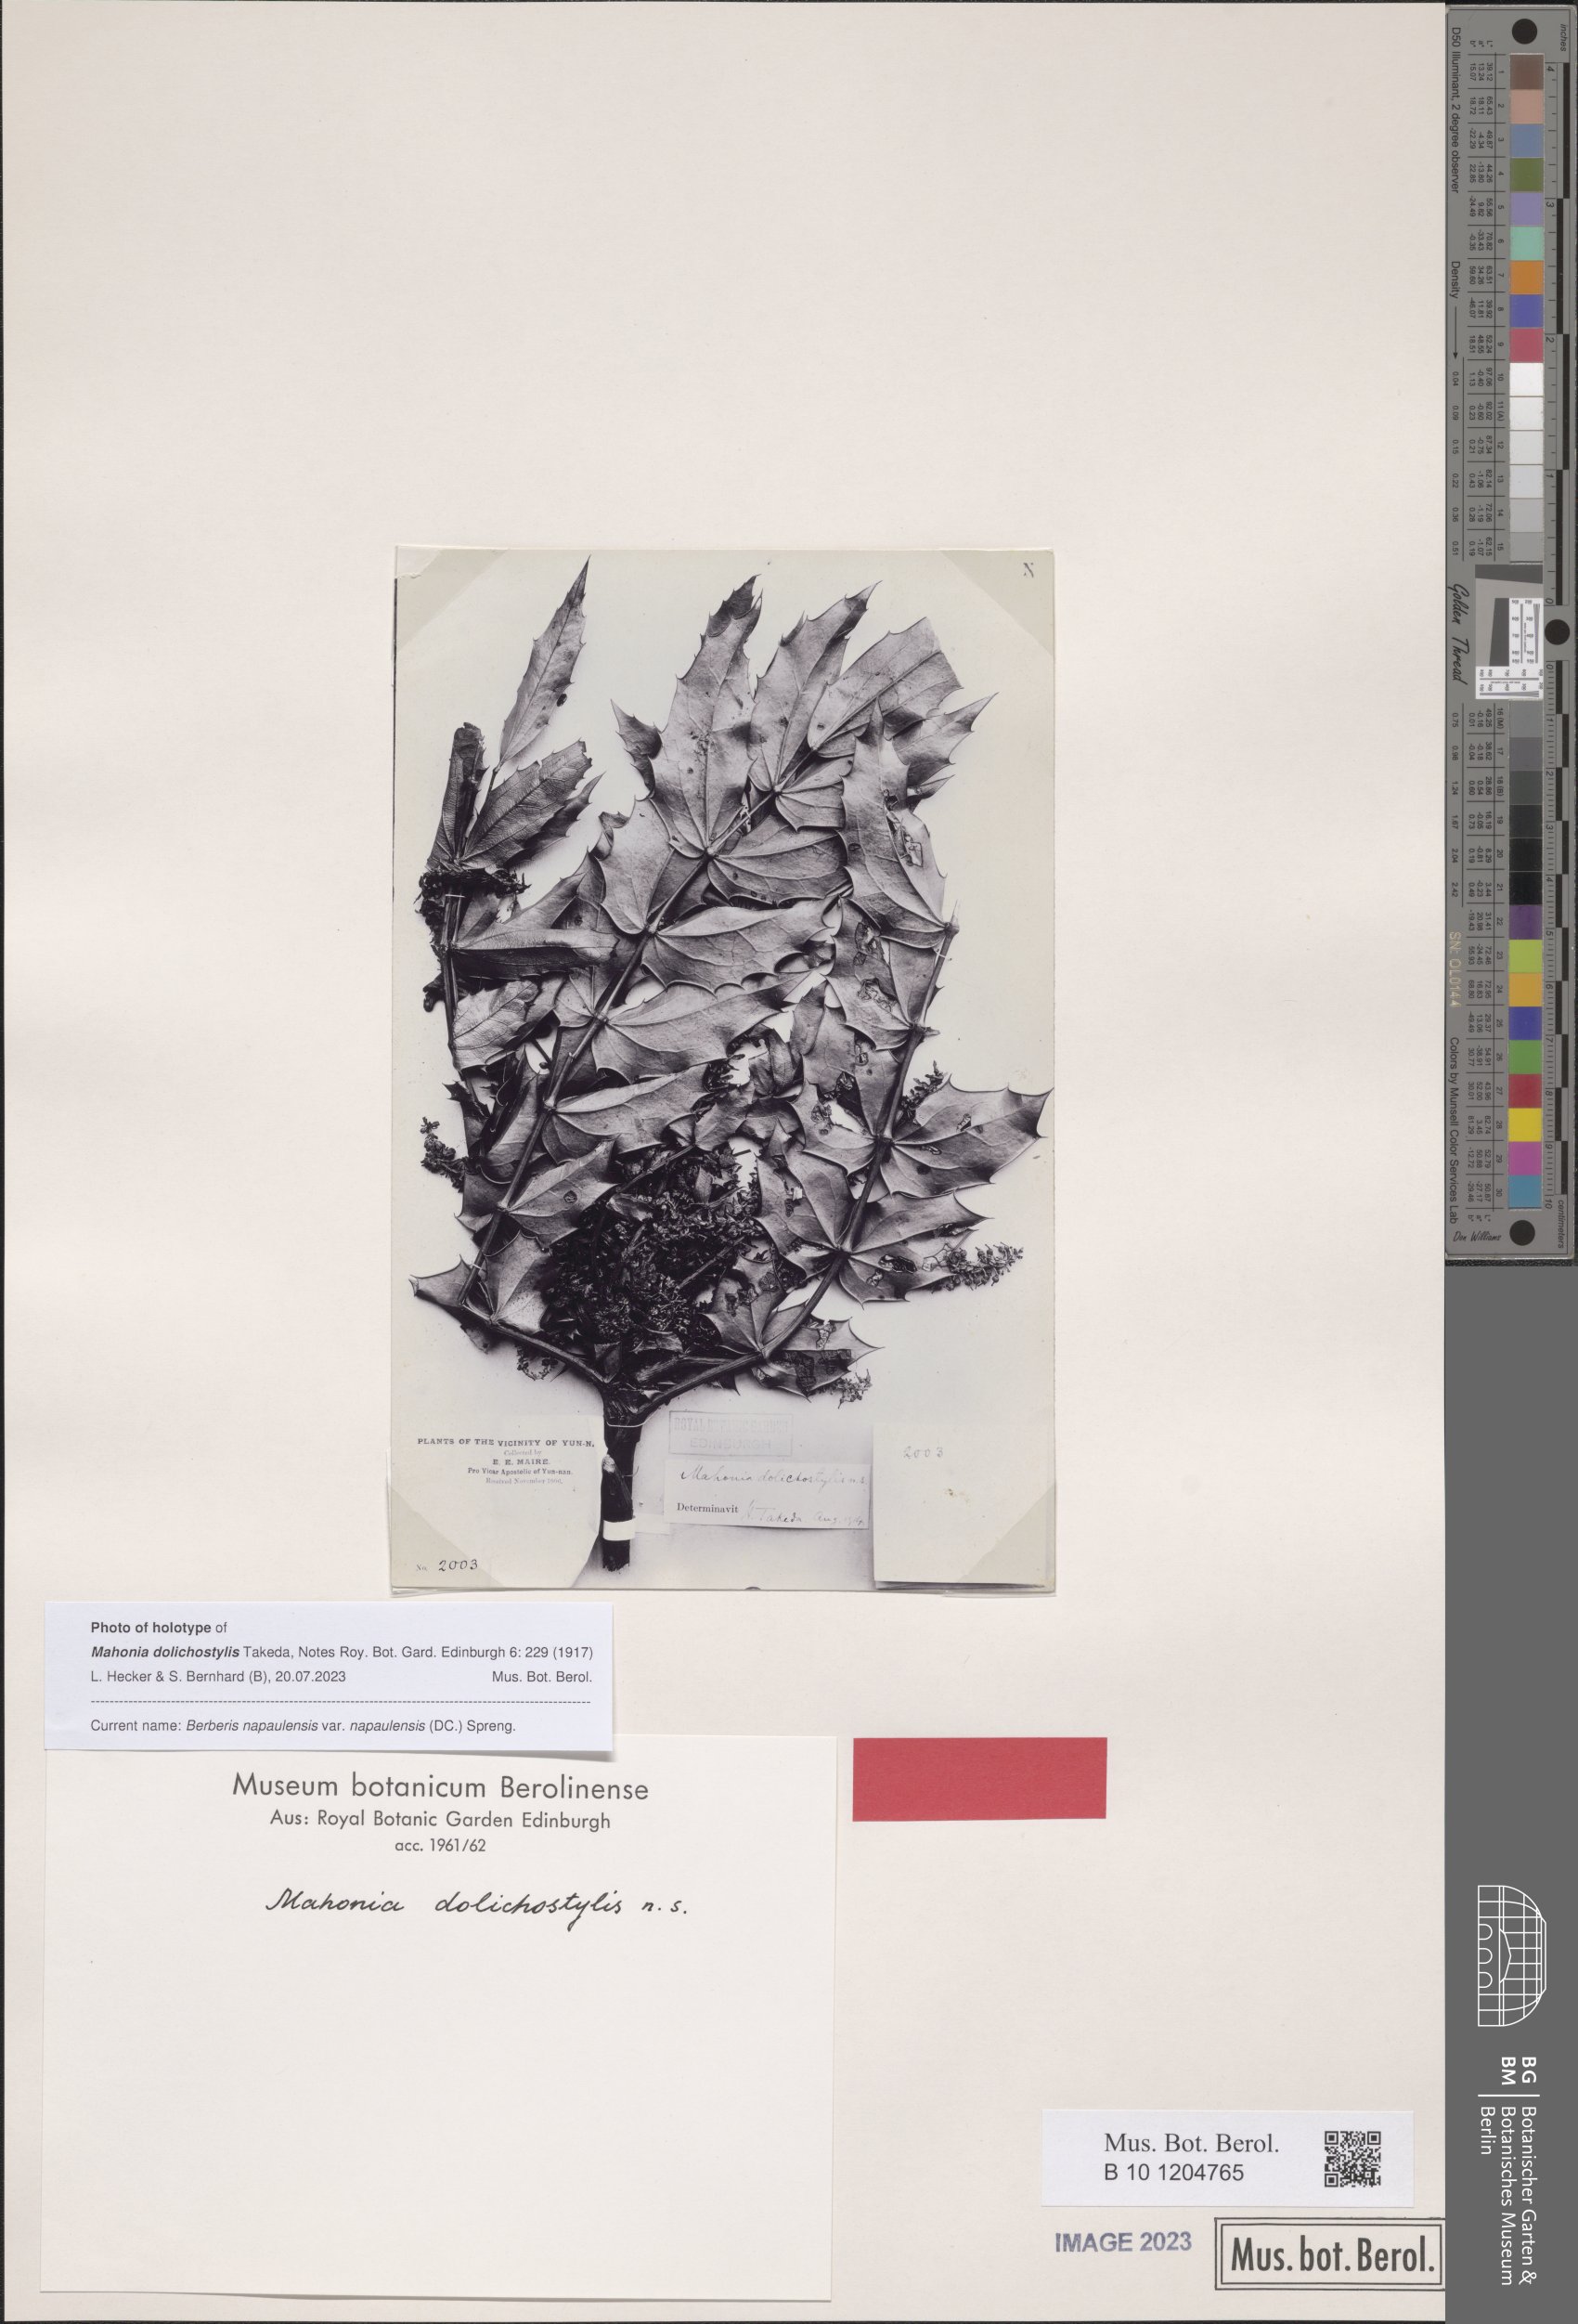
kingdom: Plantae
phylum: Tracheophyta
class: Magnoliopsida
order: Ranunculales
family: Berberidaceae
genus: Mahonia
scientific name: Mahonia napaulensis
